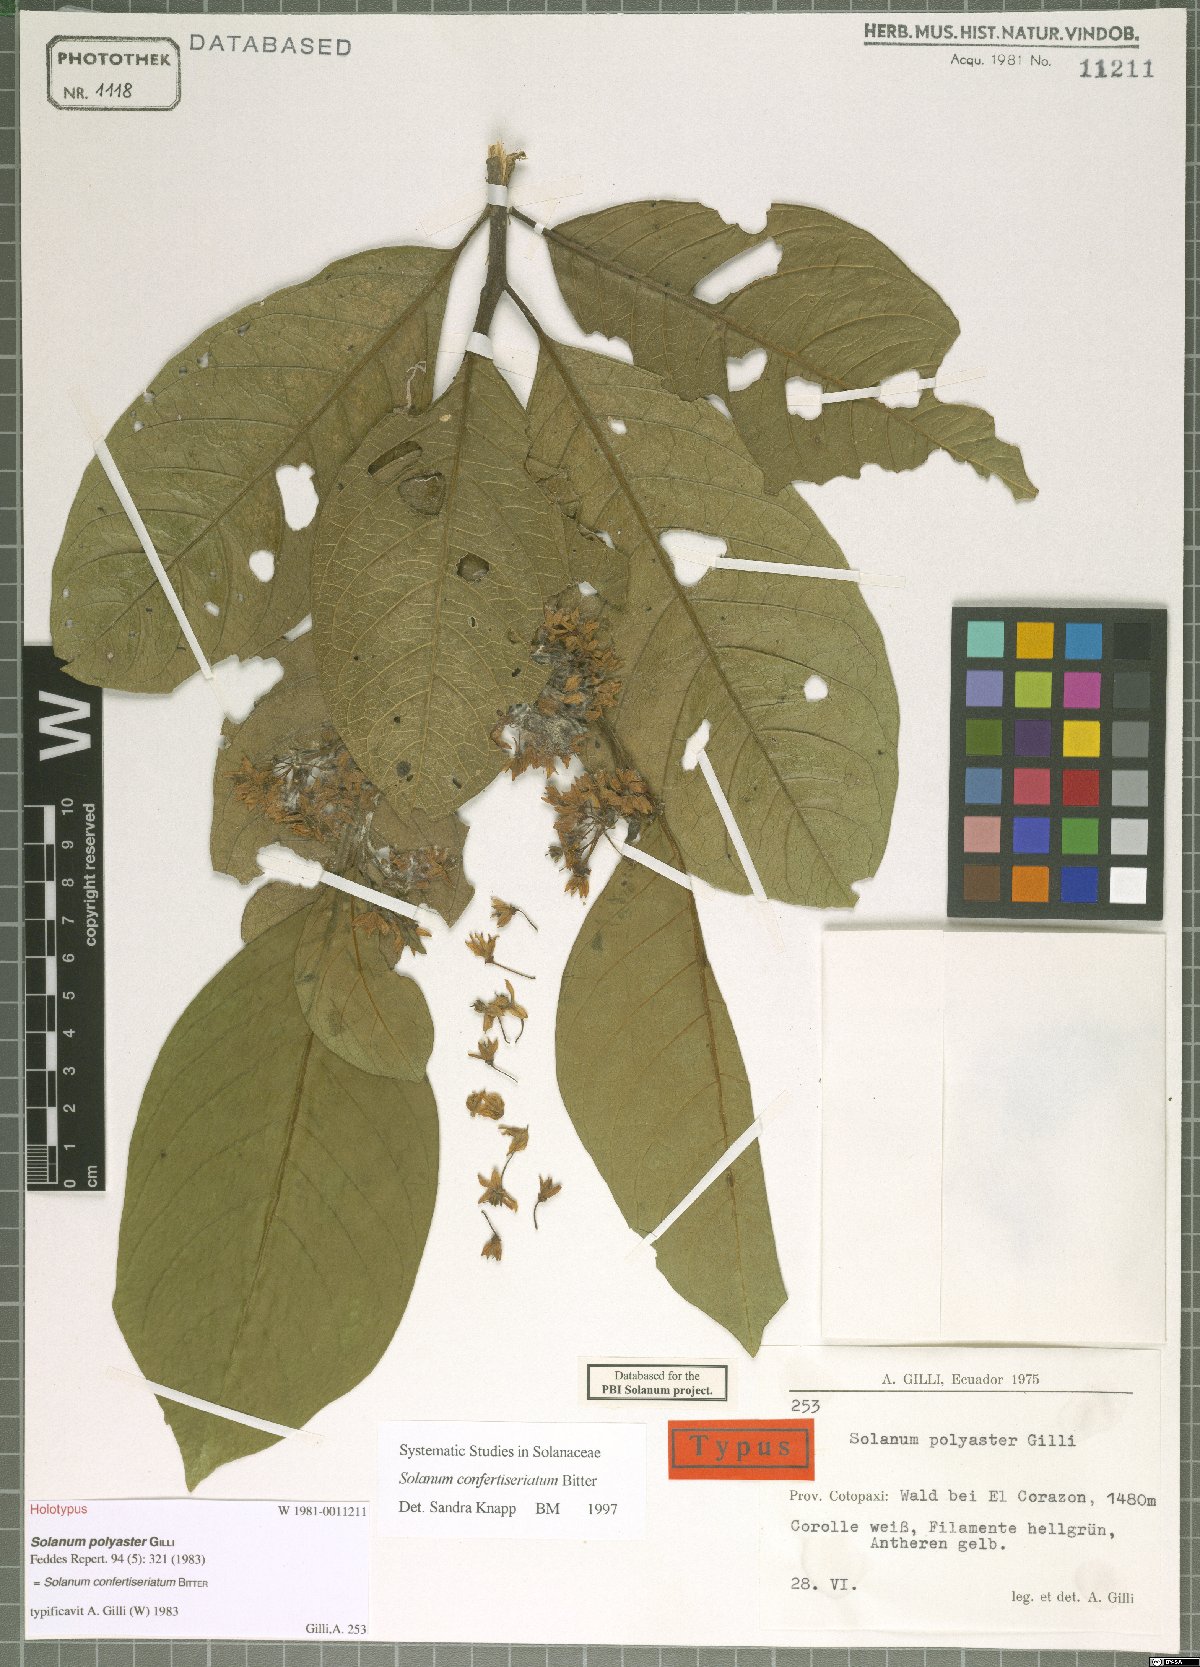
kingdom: Plantae
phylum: Tracheophyta
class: Magnoliopsida
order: Solanales
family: Solanaceae
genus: Solanum
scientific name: Solanum confertiseriatum
